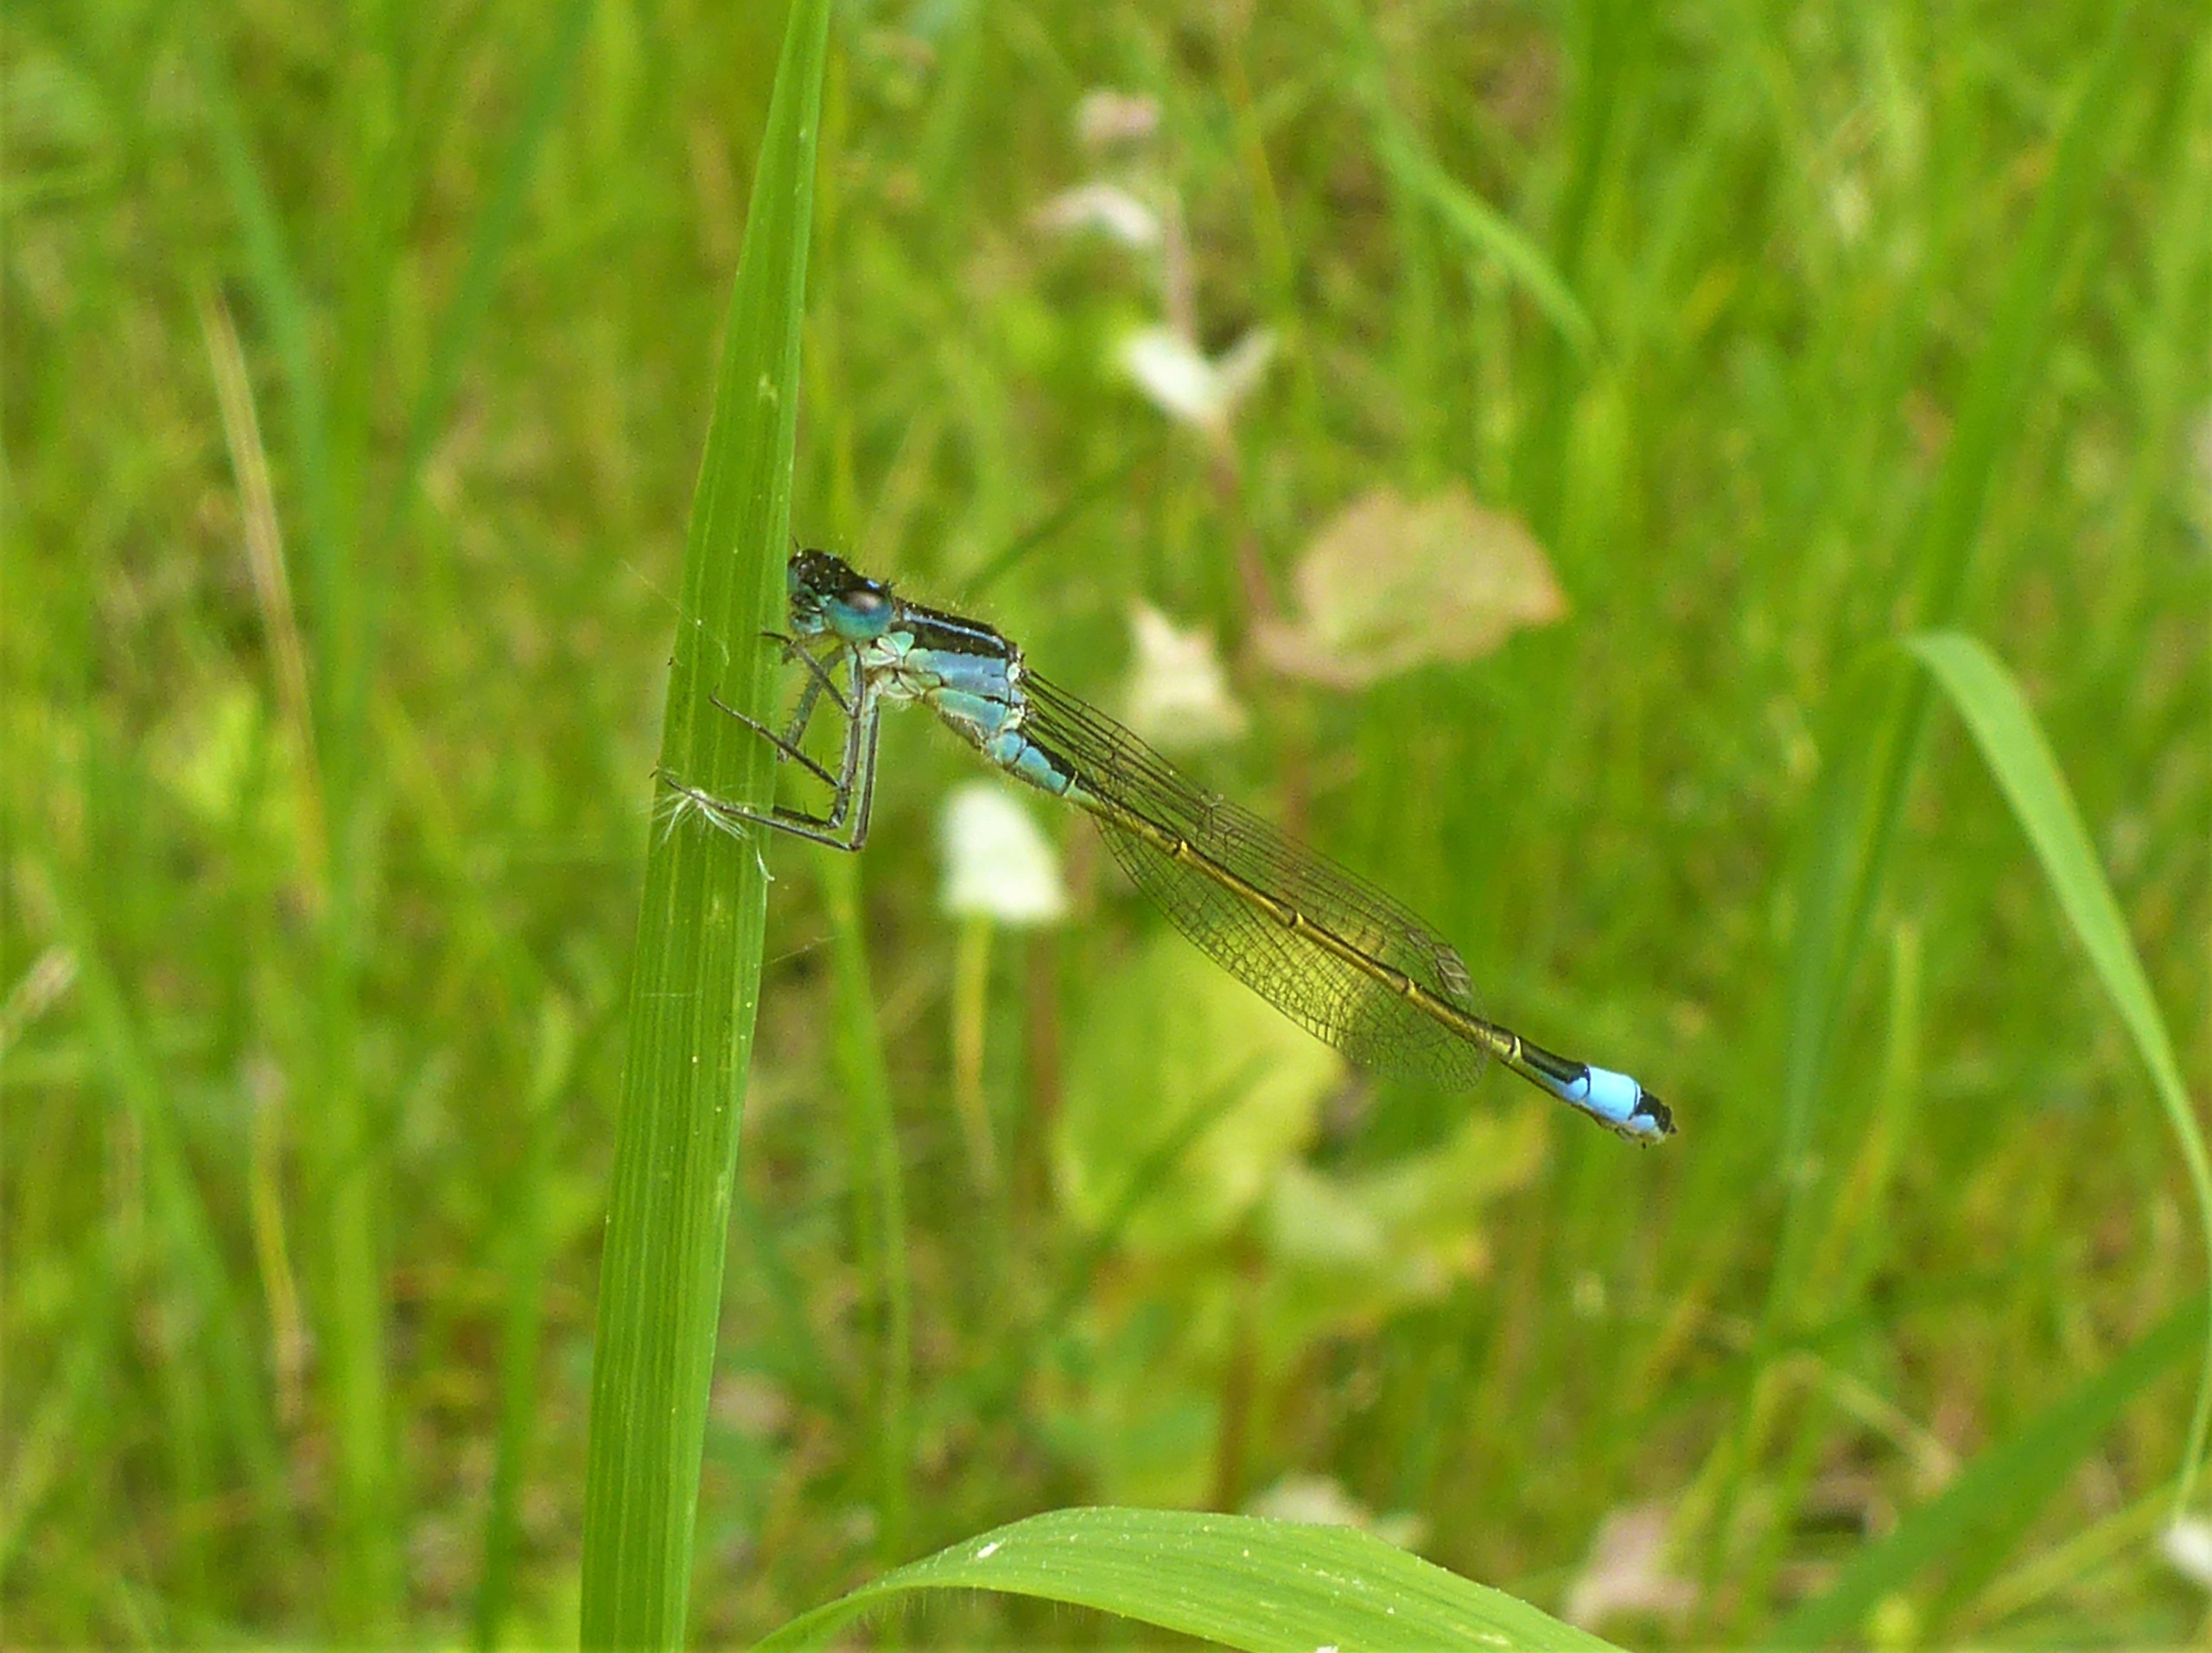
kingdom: Animalia
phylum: Arthropoda
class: Insecta
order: Odonata
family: Coenagrionidae
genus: Ischnura
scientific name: Ischnura elegans
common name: Stor farvevandnymfe
